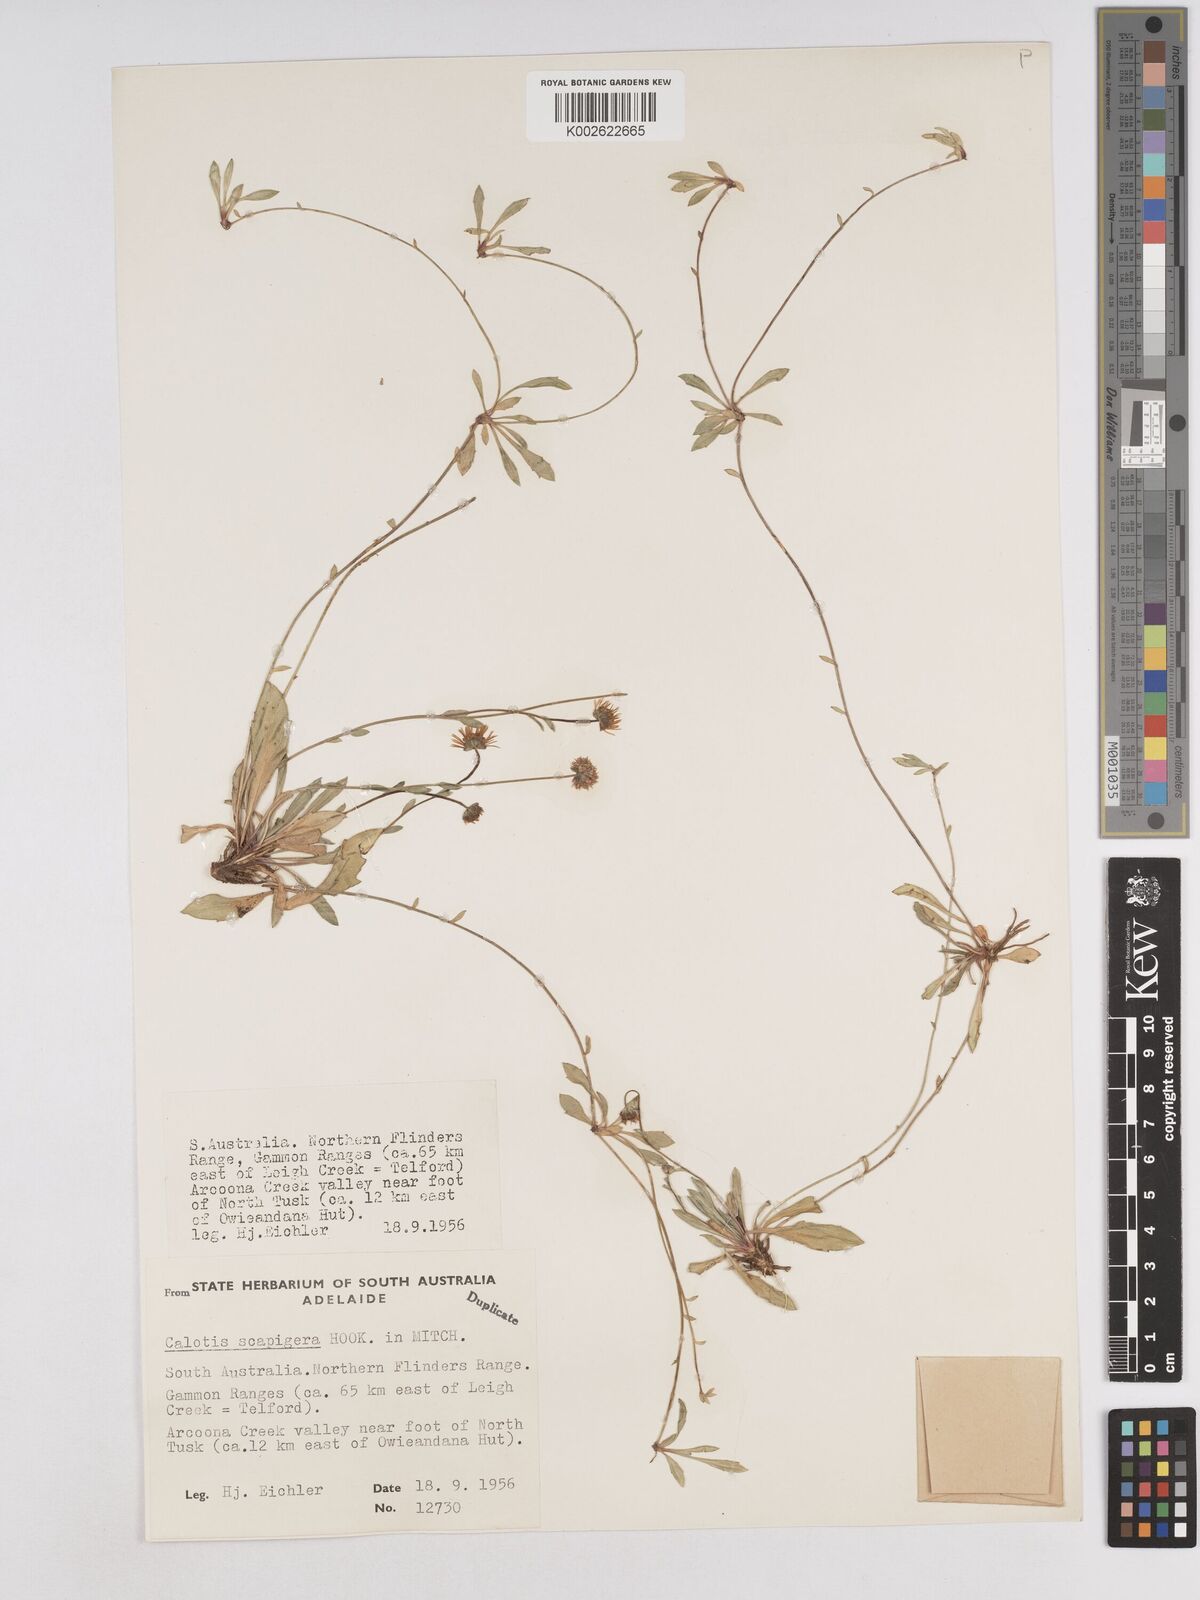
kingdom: Plantae
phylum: Tracheophyta
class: Magnoliopsida
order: Asterales
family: Asteraceae
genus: Calotis
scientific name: Calotis scapigera
